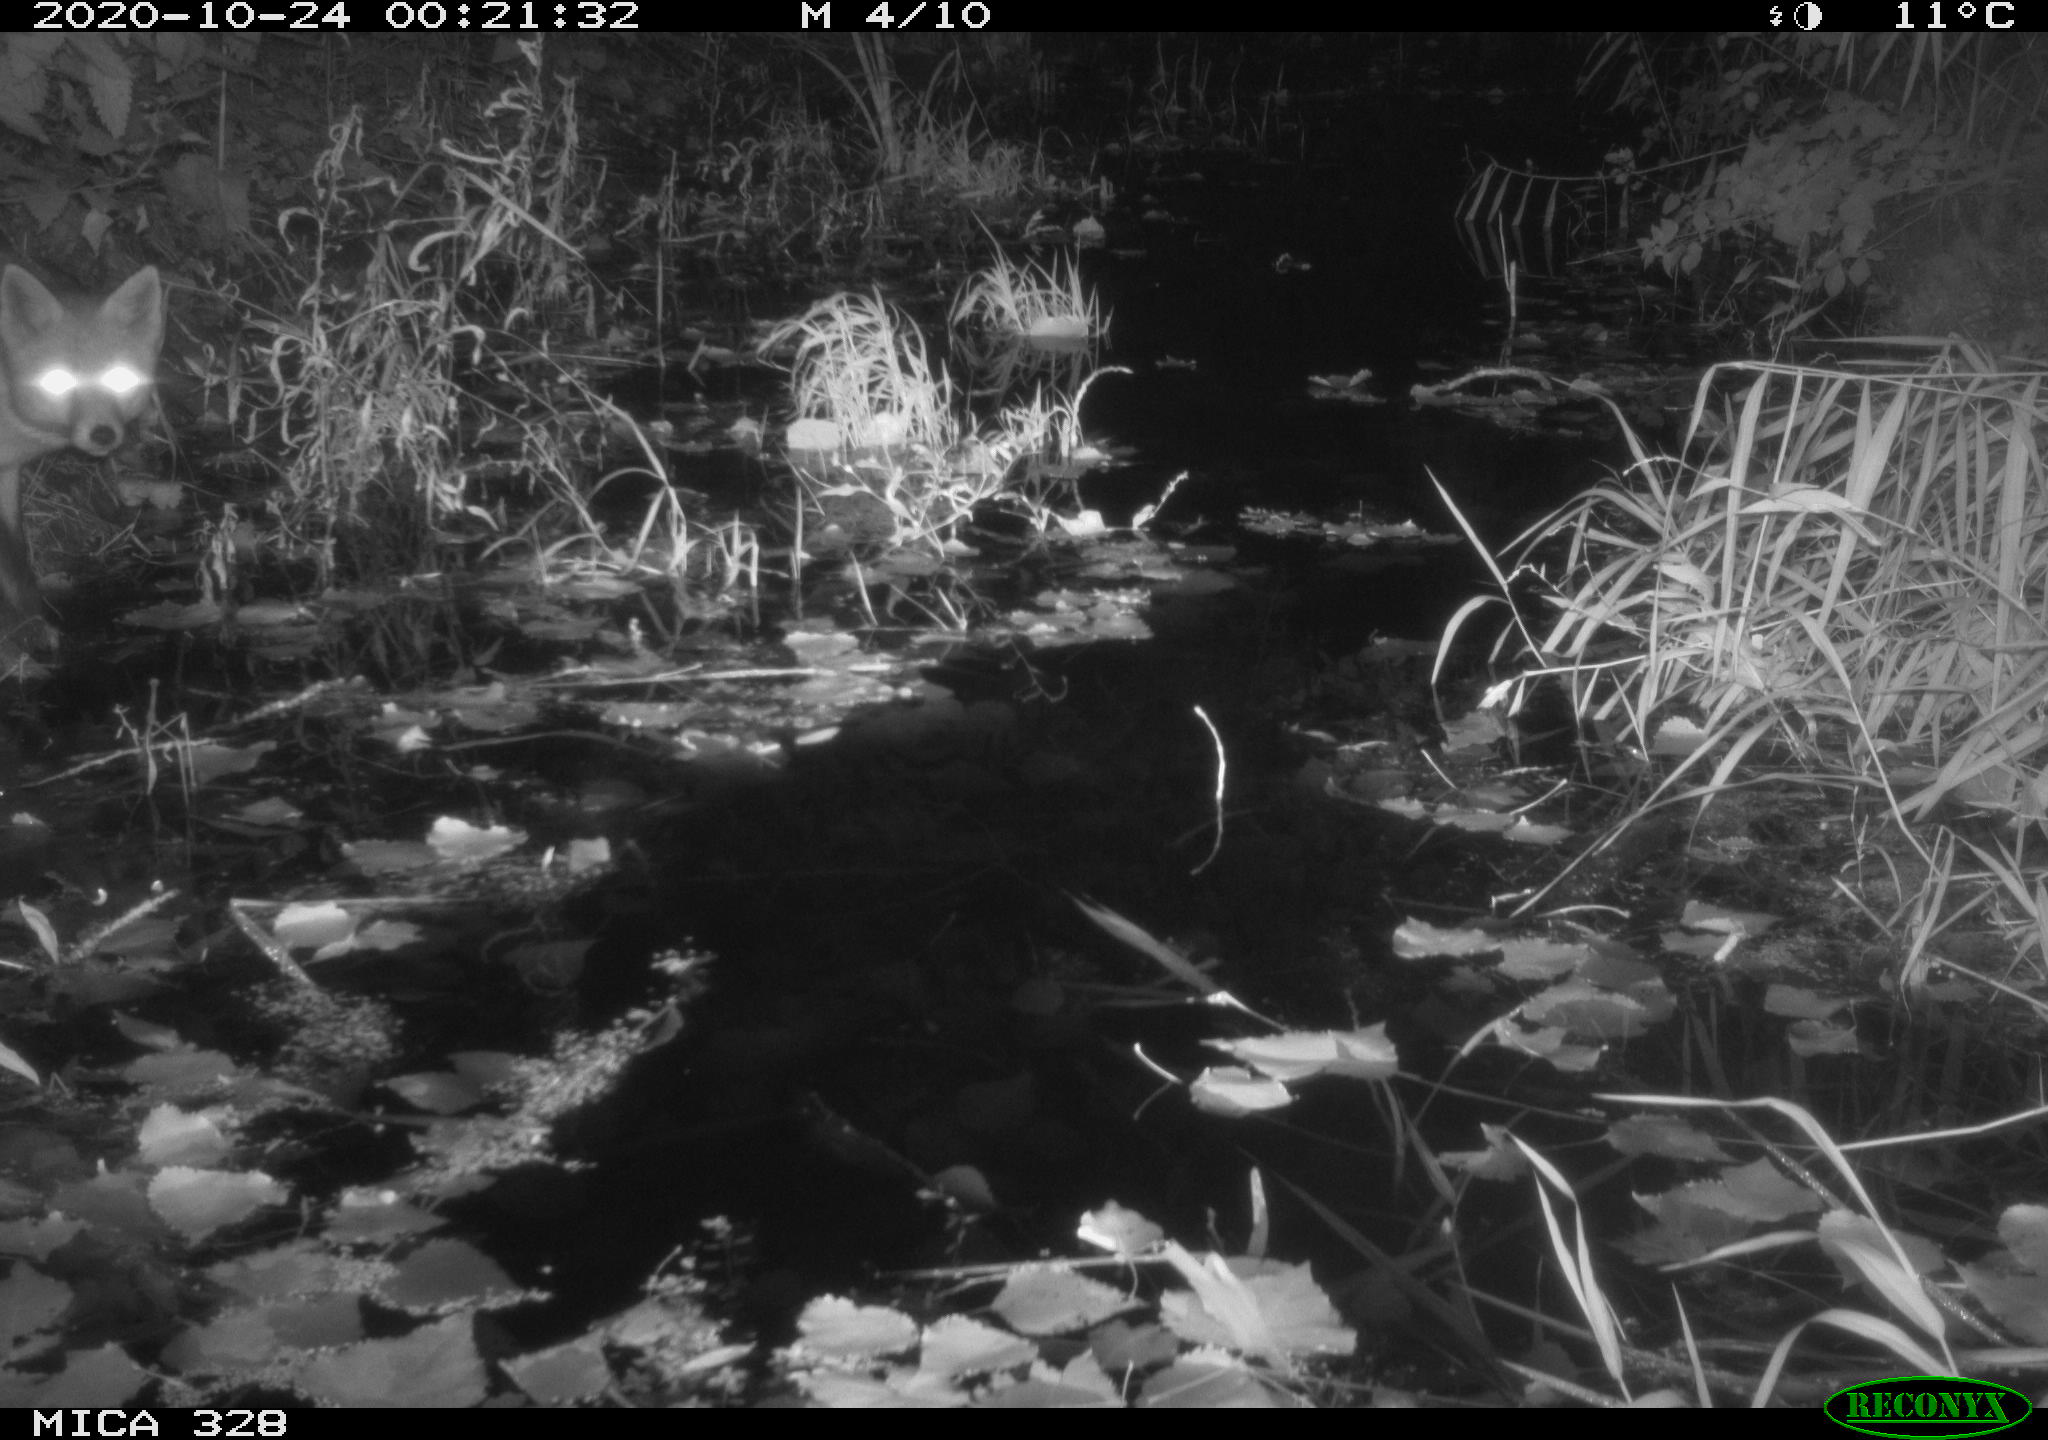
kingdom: Animalia
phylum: Chordata
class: Mammalia
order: Carnivora
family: Canidae
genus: Vulpes
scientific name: Vulpes vulpes
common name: Red fox
